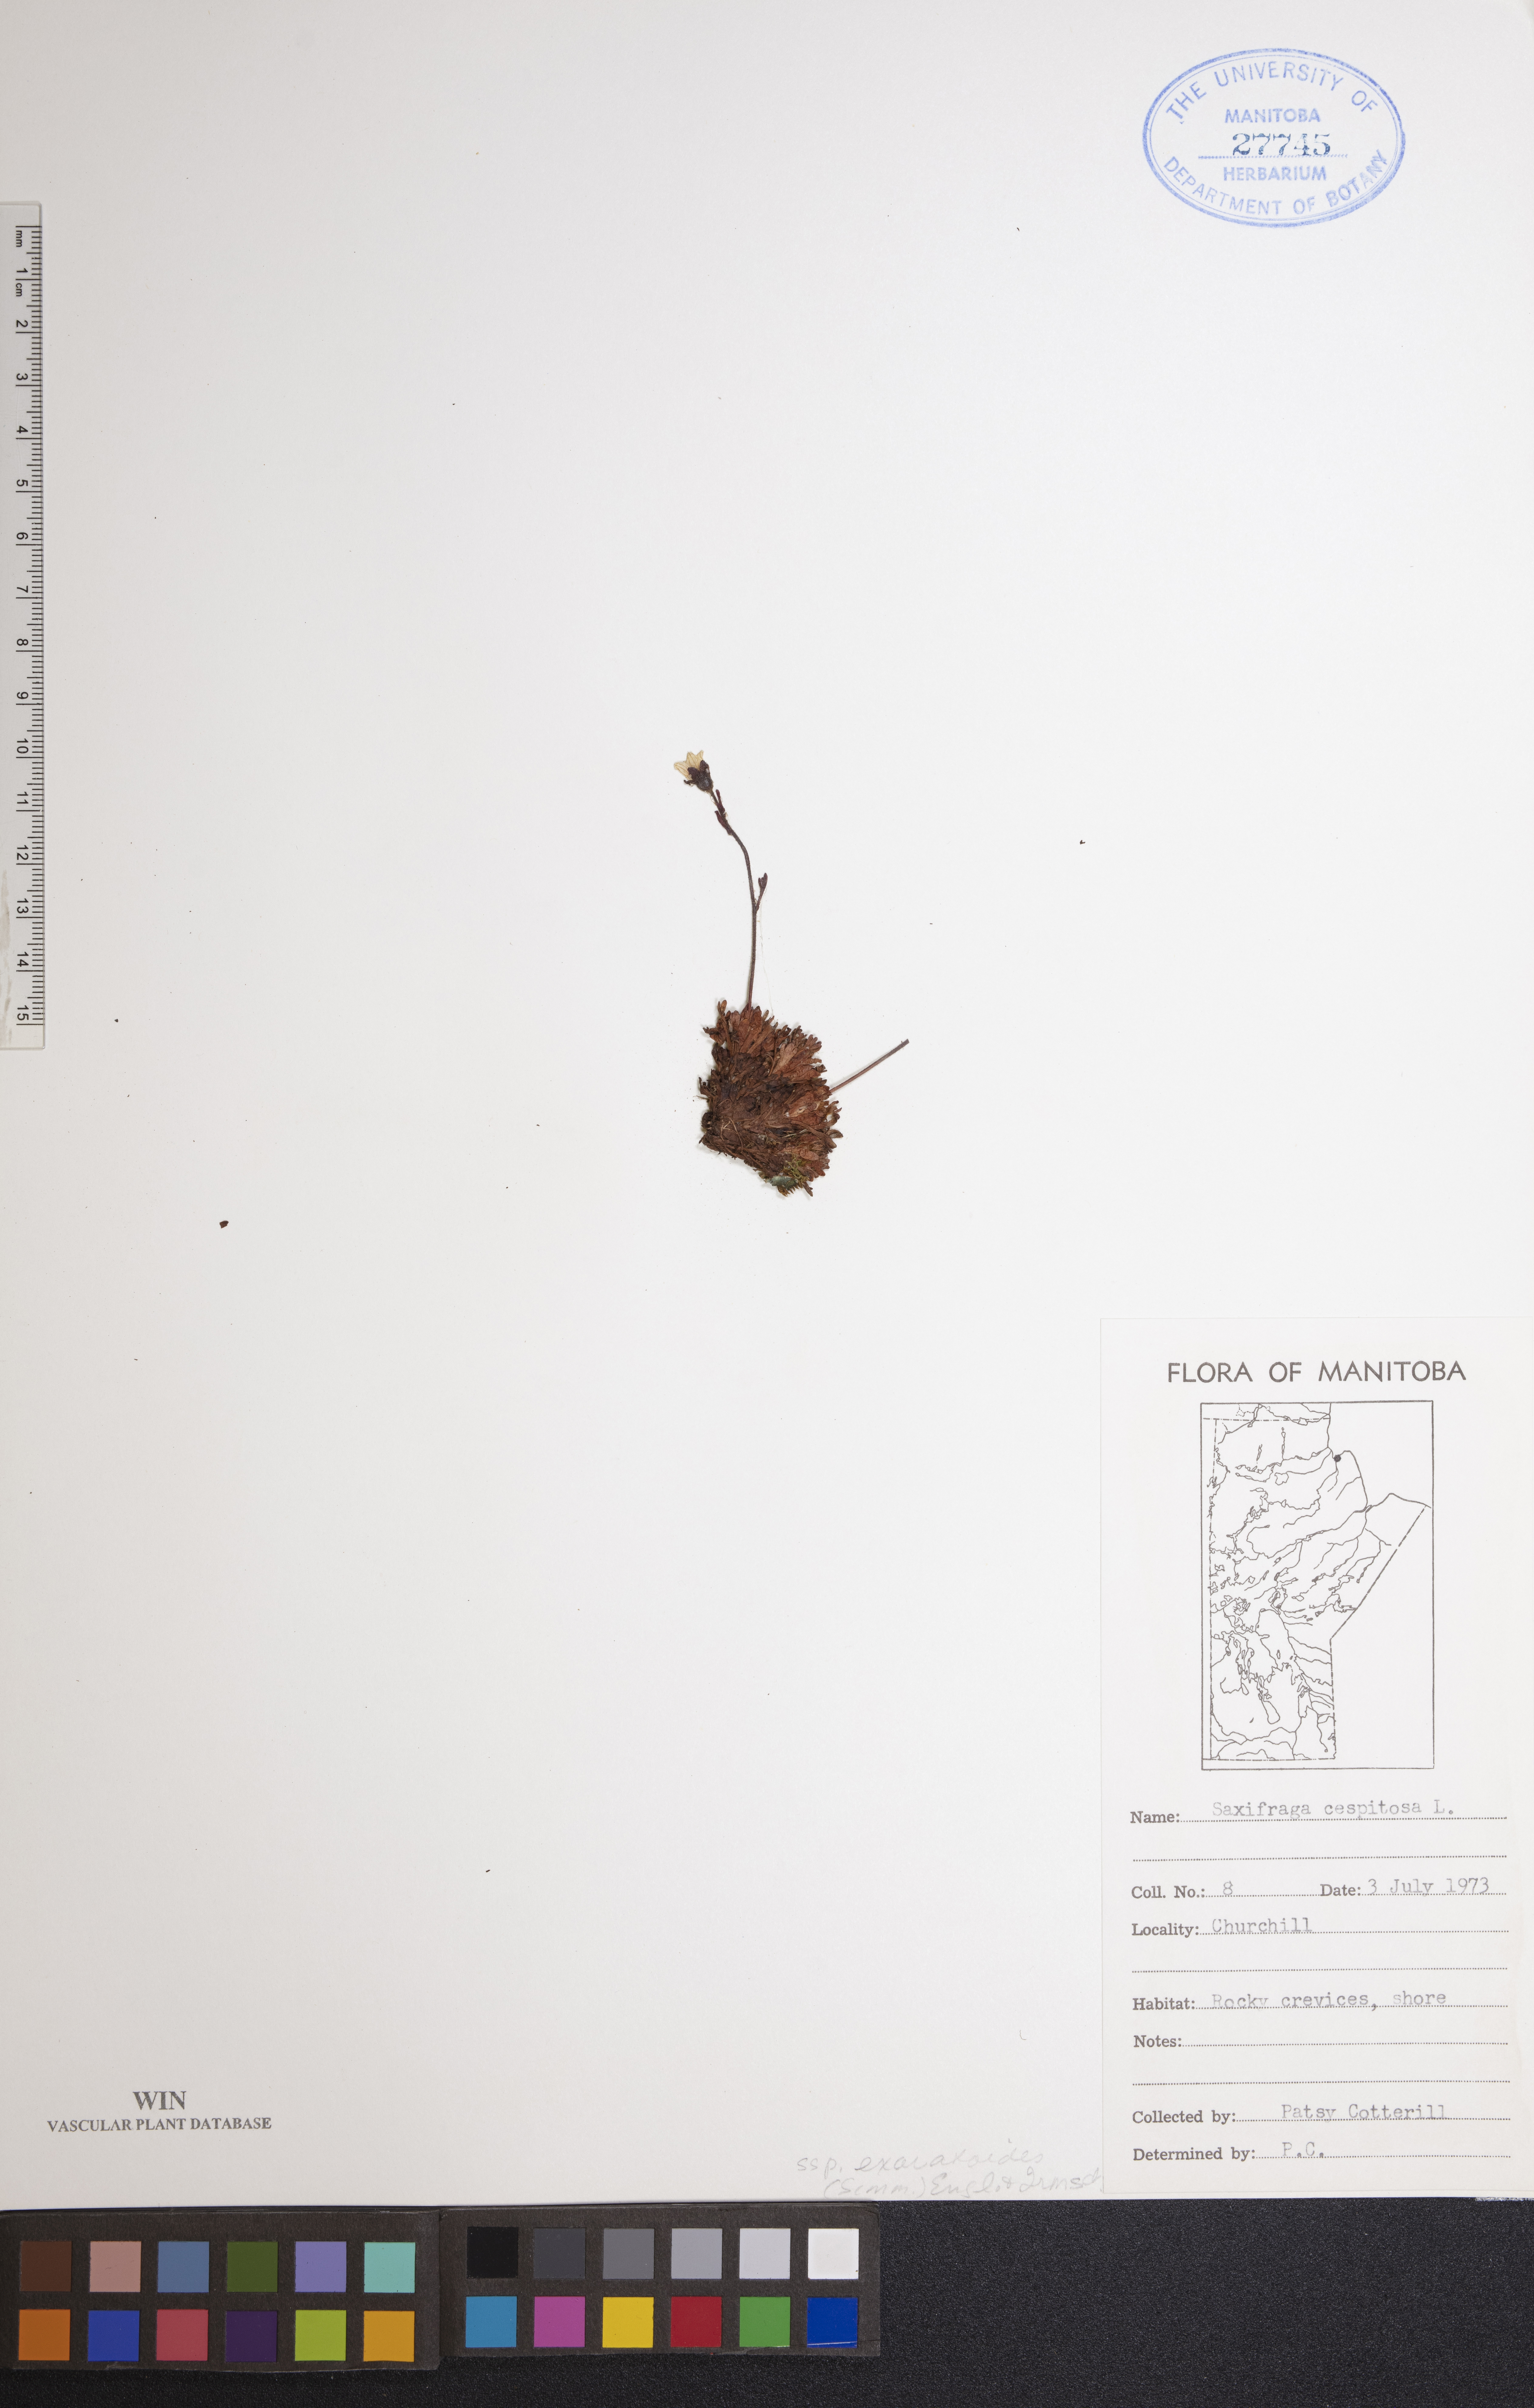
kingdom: Plantae
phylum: Tracheophyta
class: Magnoliopsida
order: Saxifragales
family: Saxifragaceae
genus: Saxifraga
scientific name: Saxifraga cespitosa
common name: Tufted saxifrage
